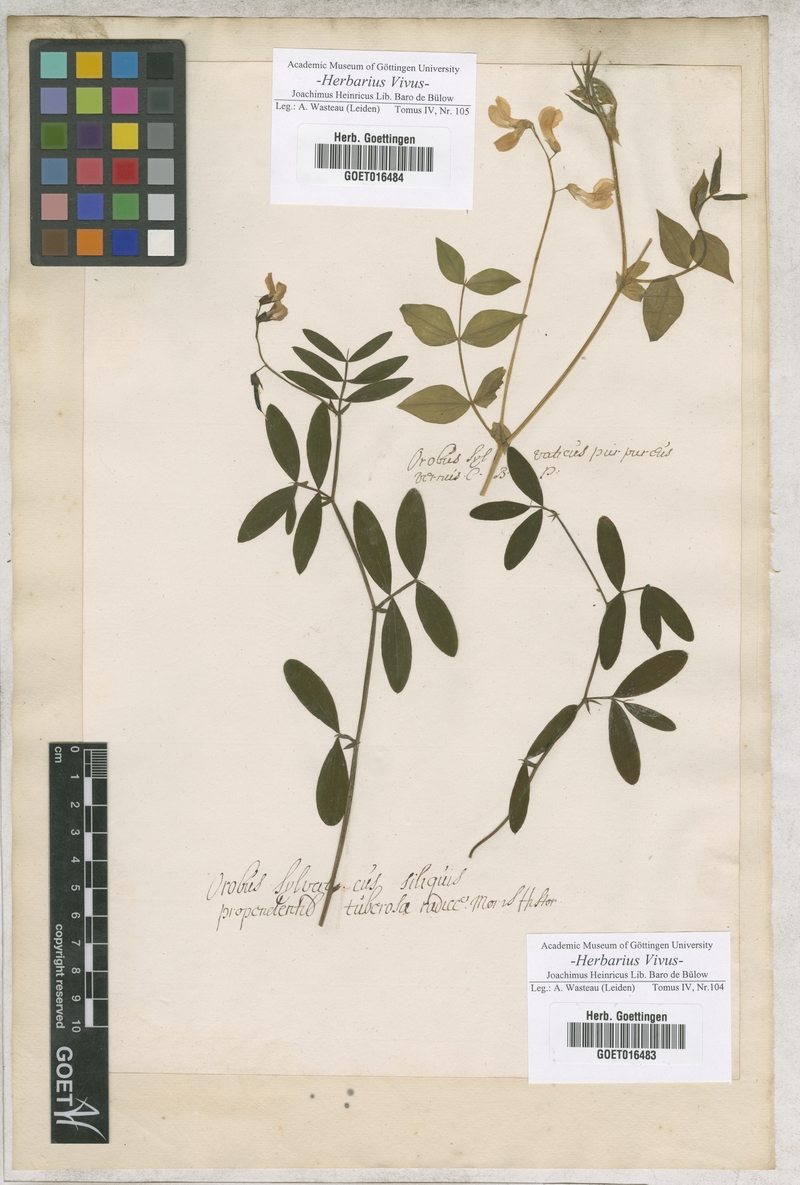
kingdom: Plantae
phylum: Tracheophyta
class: Magnoliopsida
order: Fabales
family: Fabaceae
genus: Lathyrus
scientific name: Lathyrus
